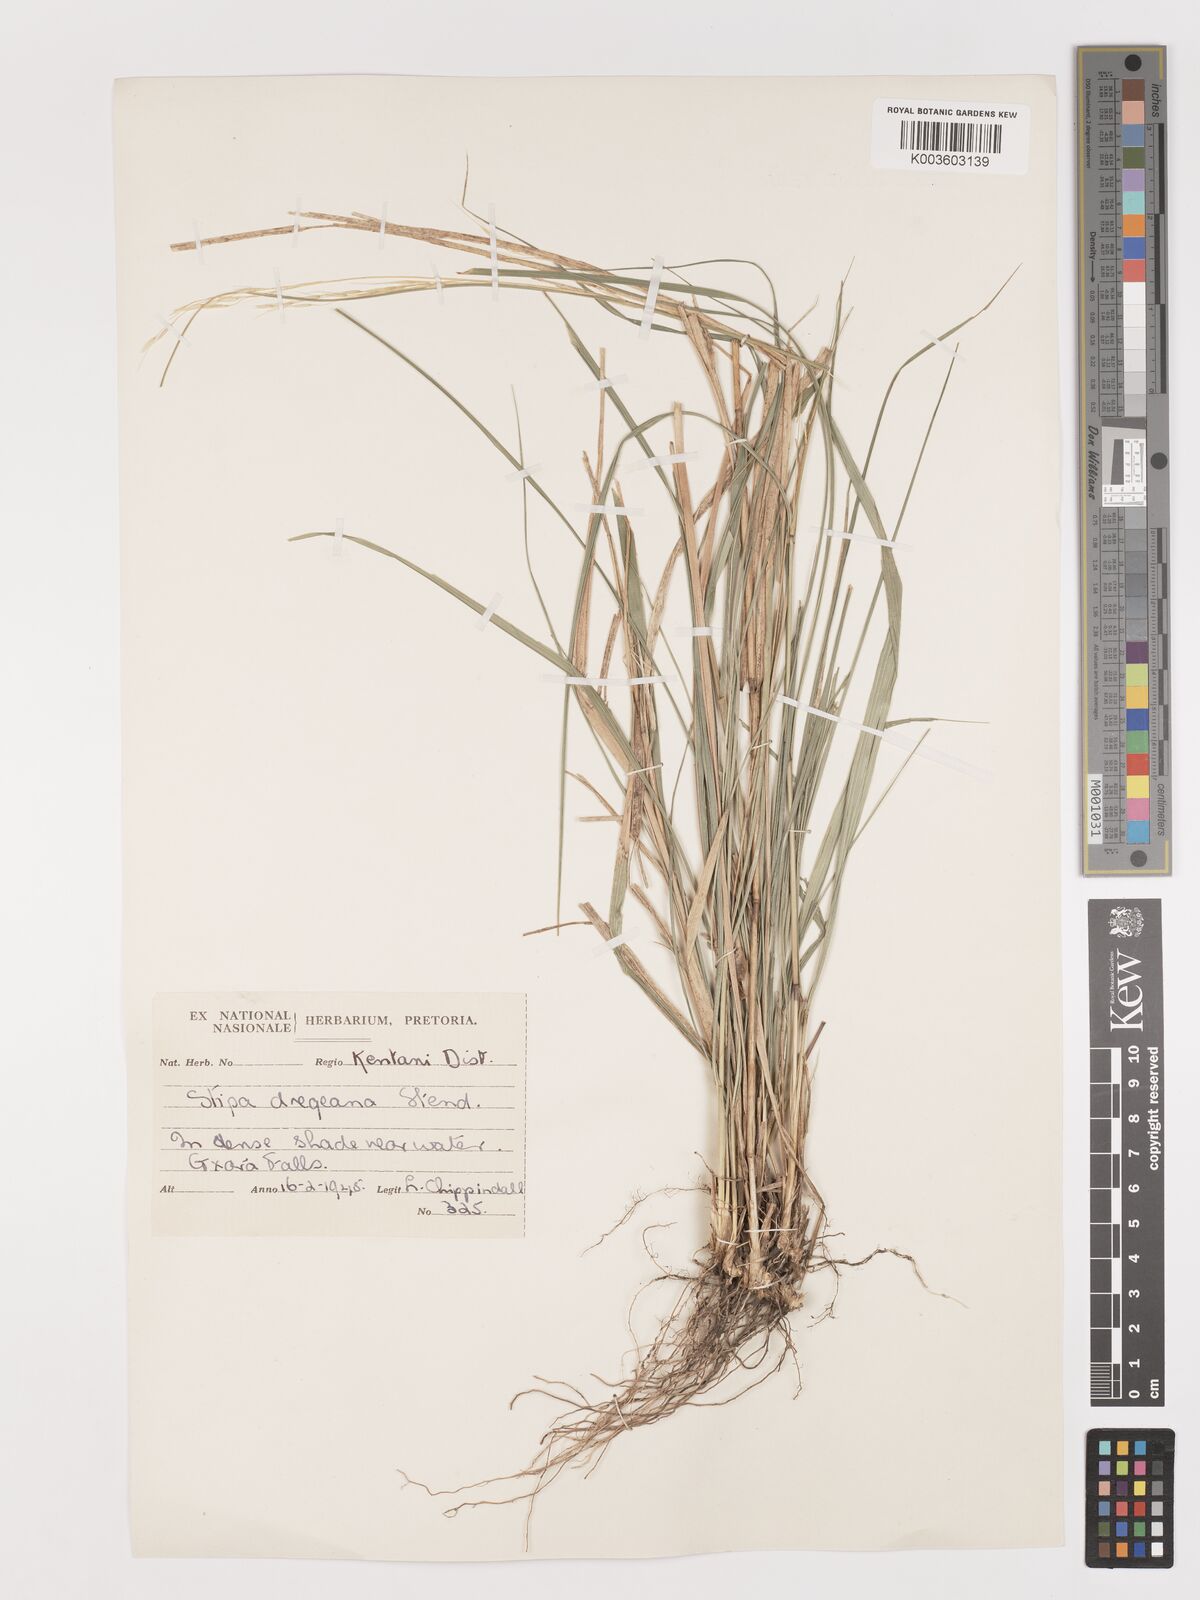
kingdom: Plantae
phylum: Tracheophyta
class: Liliopsida
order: Poales
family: Poaceae
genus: Stipa
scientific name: Stipa dregeana
